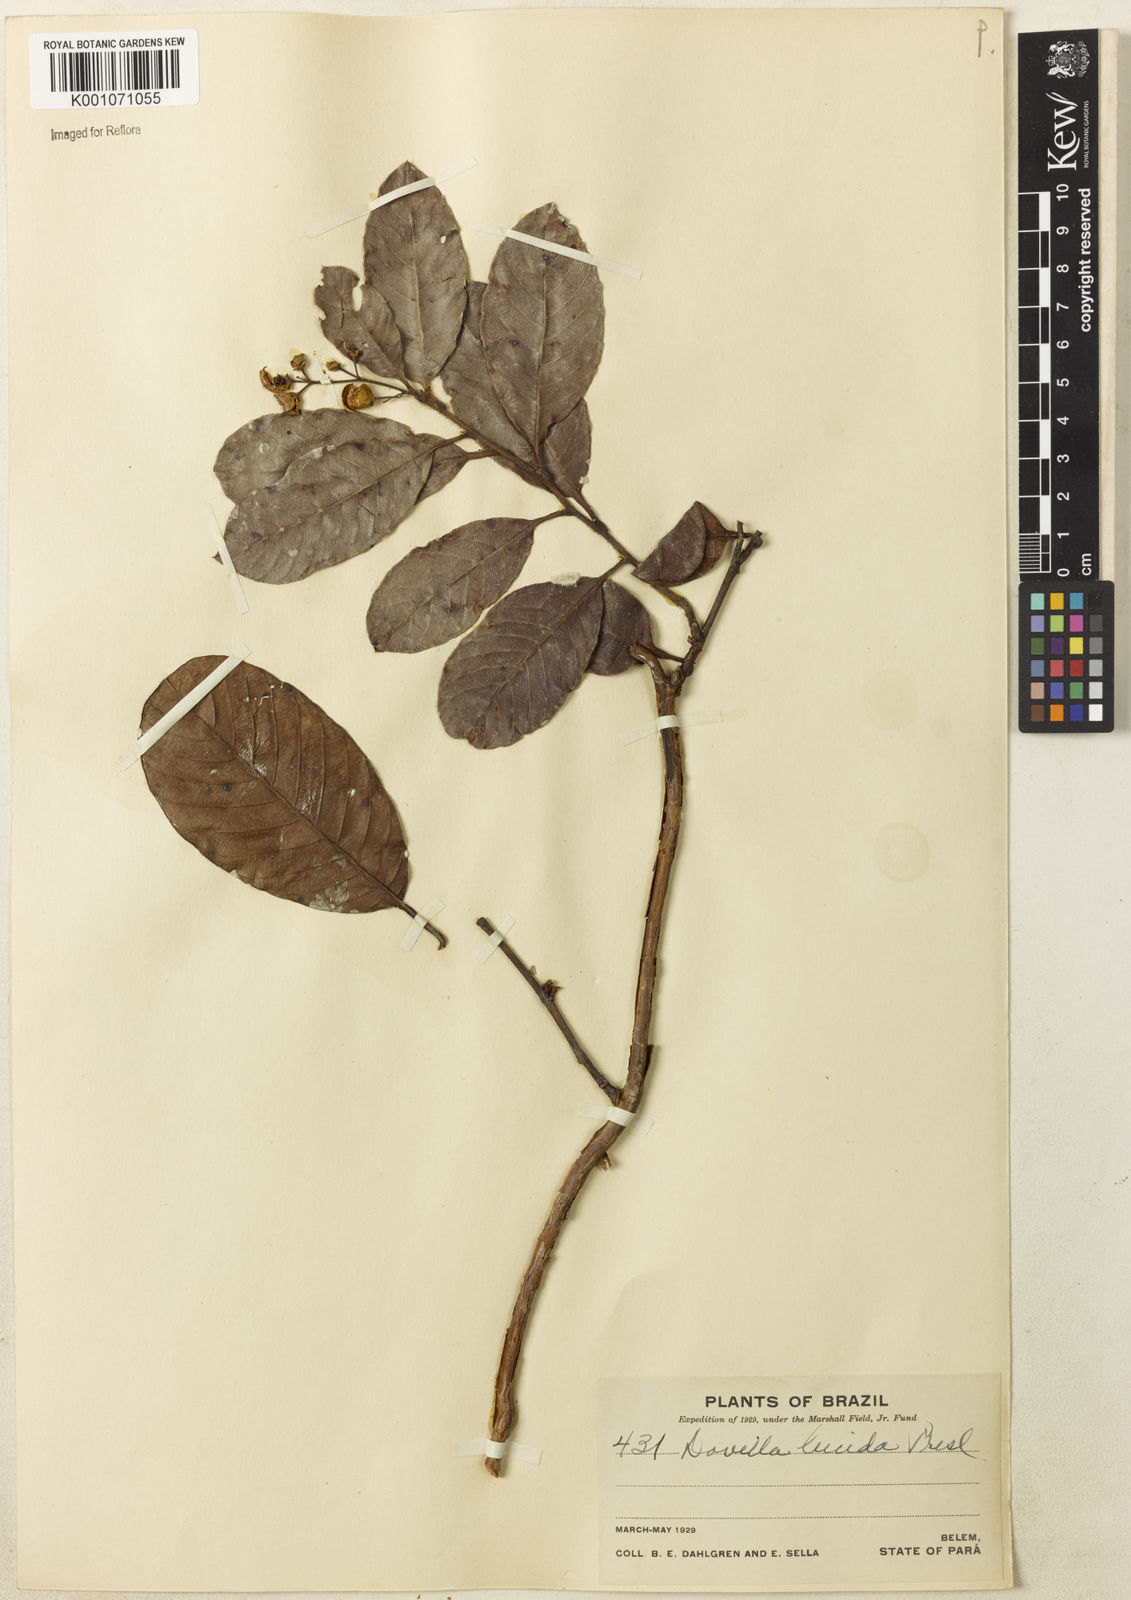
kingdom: Plantae
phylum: Tracheophyta
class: Magnoliopsida
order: Dilleniales
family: Dilleniaceae
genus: Davilla
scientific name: Davilla kunthii
